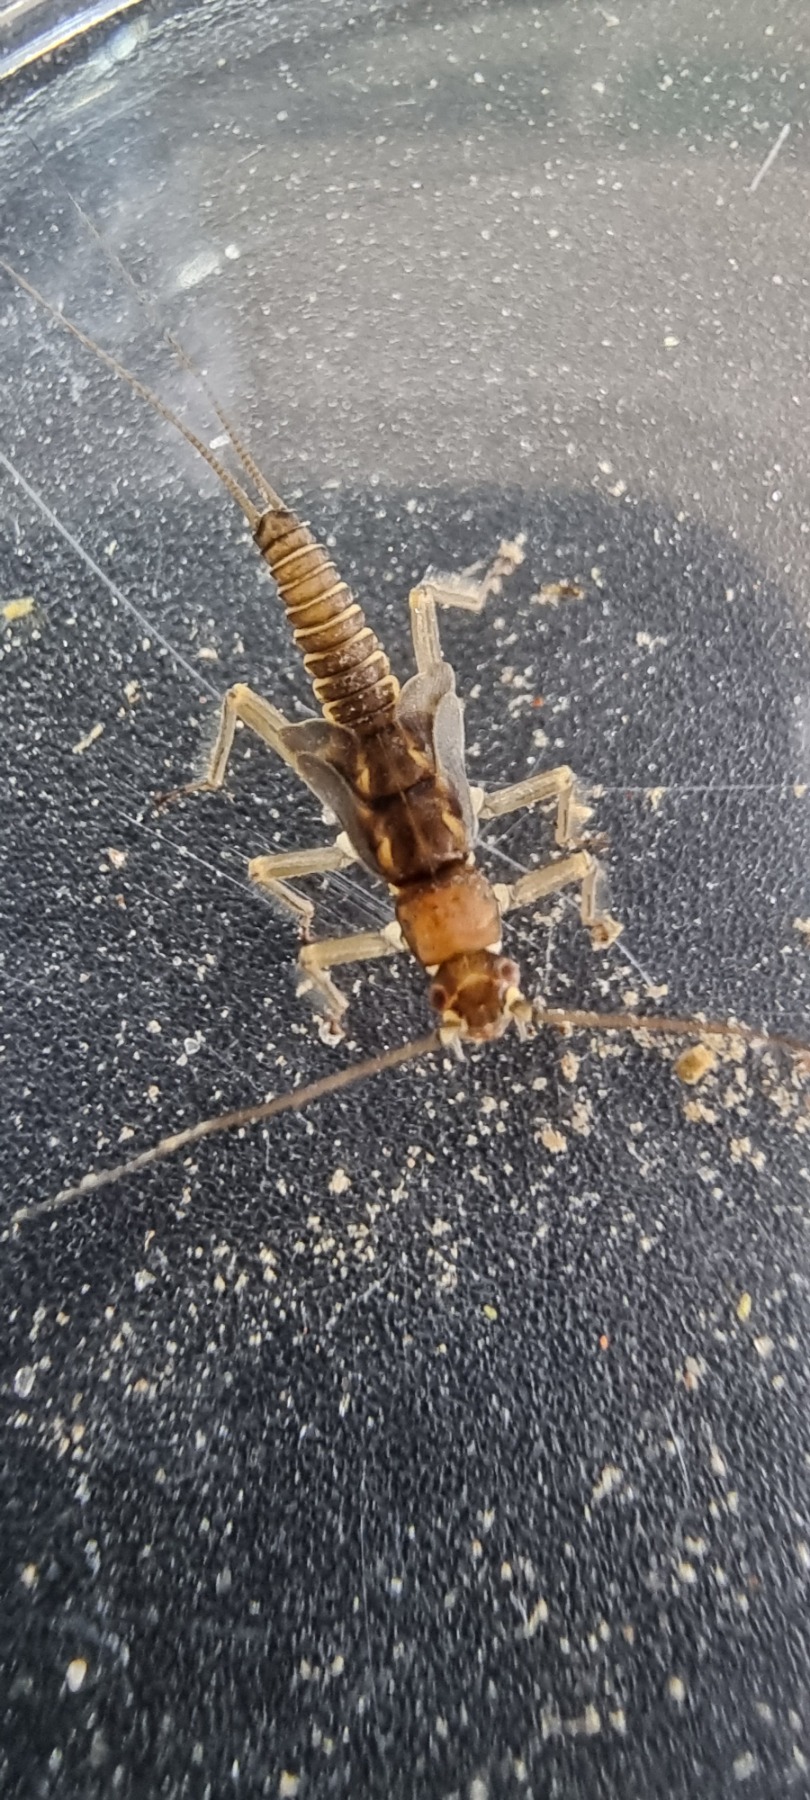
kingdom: Animalia
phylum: Arthropoda
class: Insecta
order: Plecoptera
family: Taeniopterygidae
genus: Brachyptera
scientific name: Brachyptera risi
